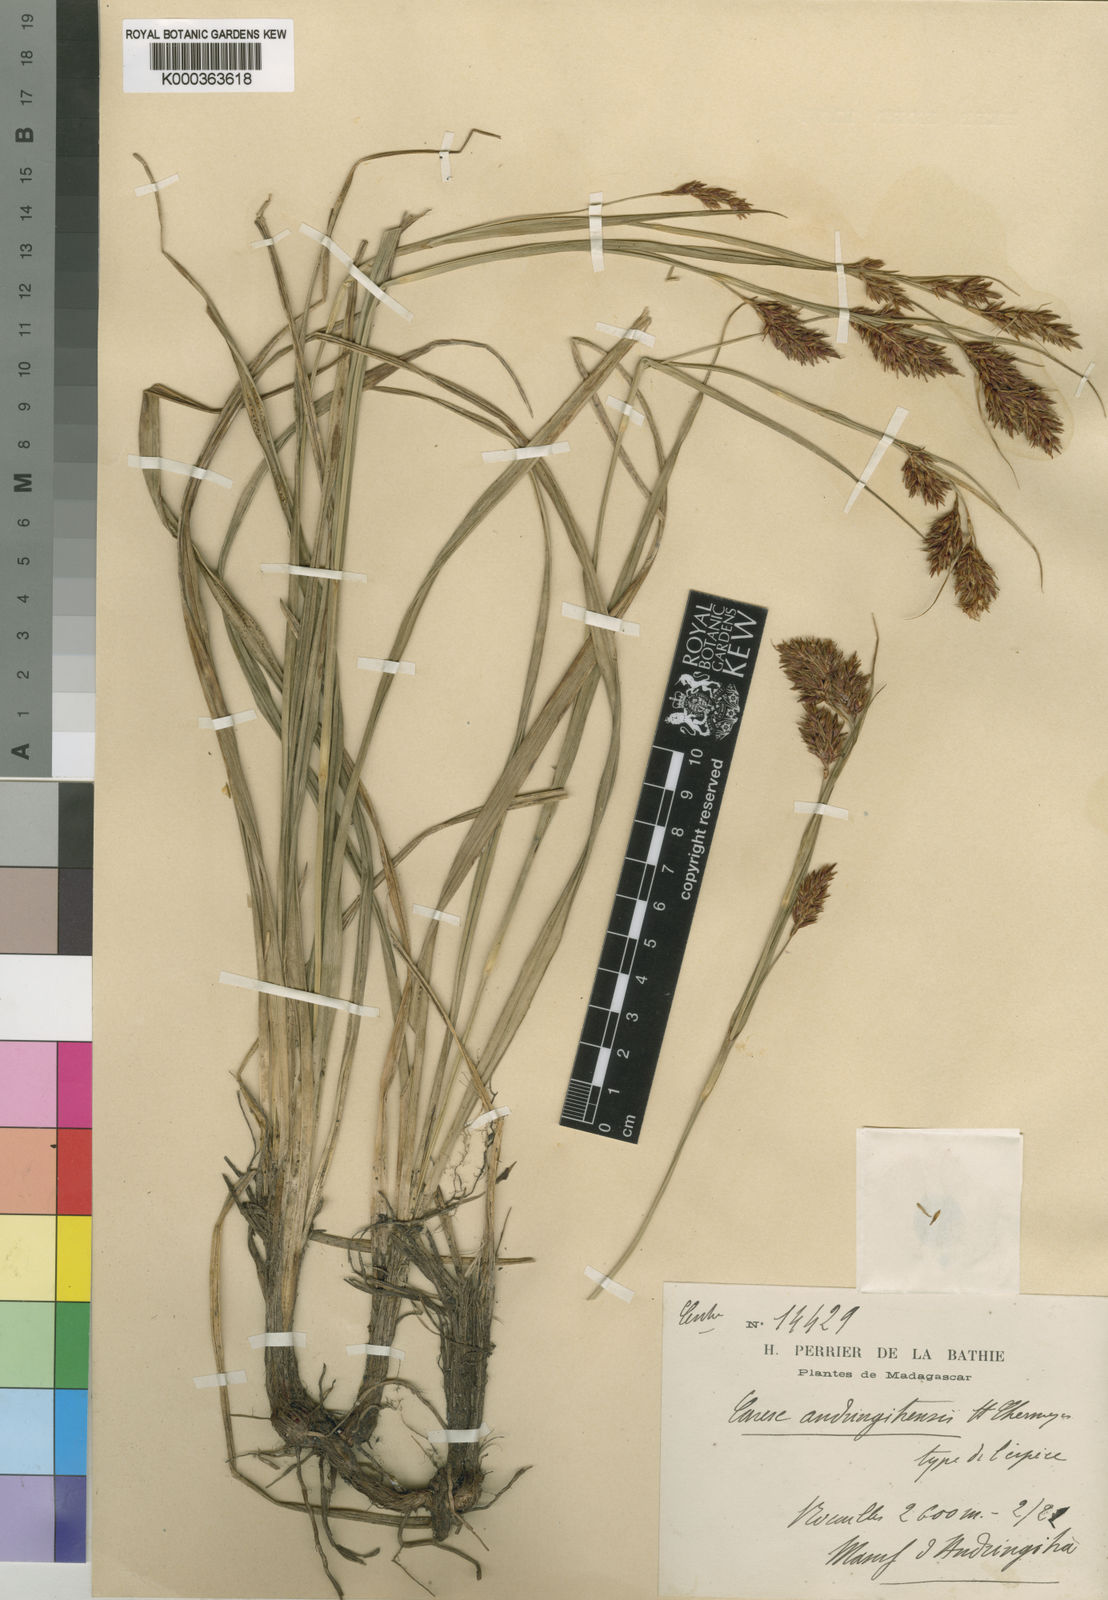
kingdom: Plantae
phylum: Tracheophyta
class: Liliopsida
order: Poales
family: Cyperaceae
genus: Carex
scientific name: Carex andringitrensis
